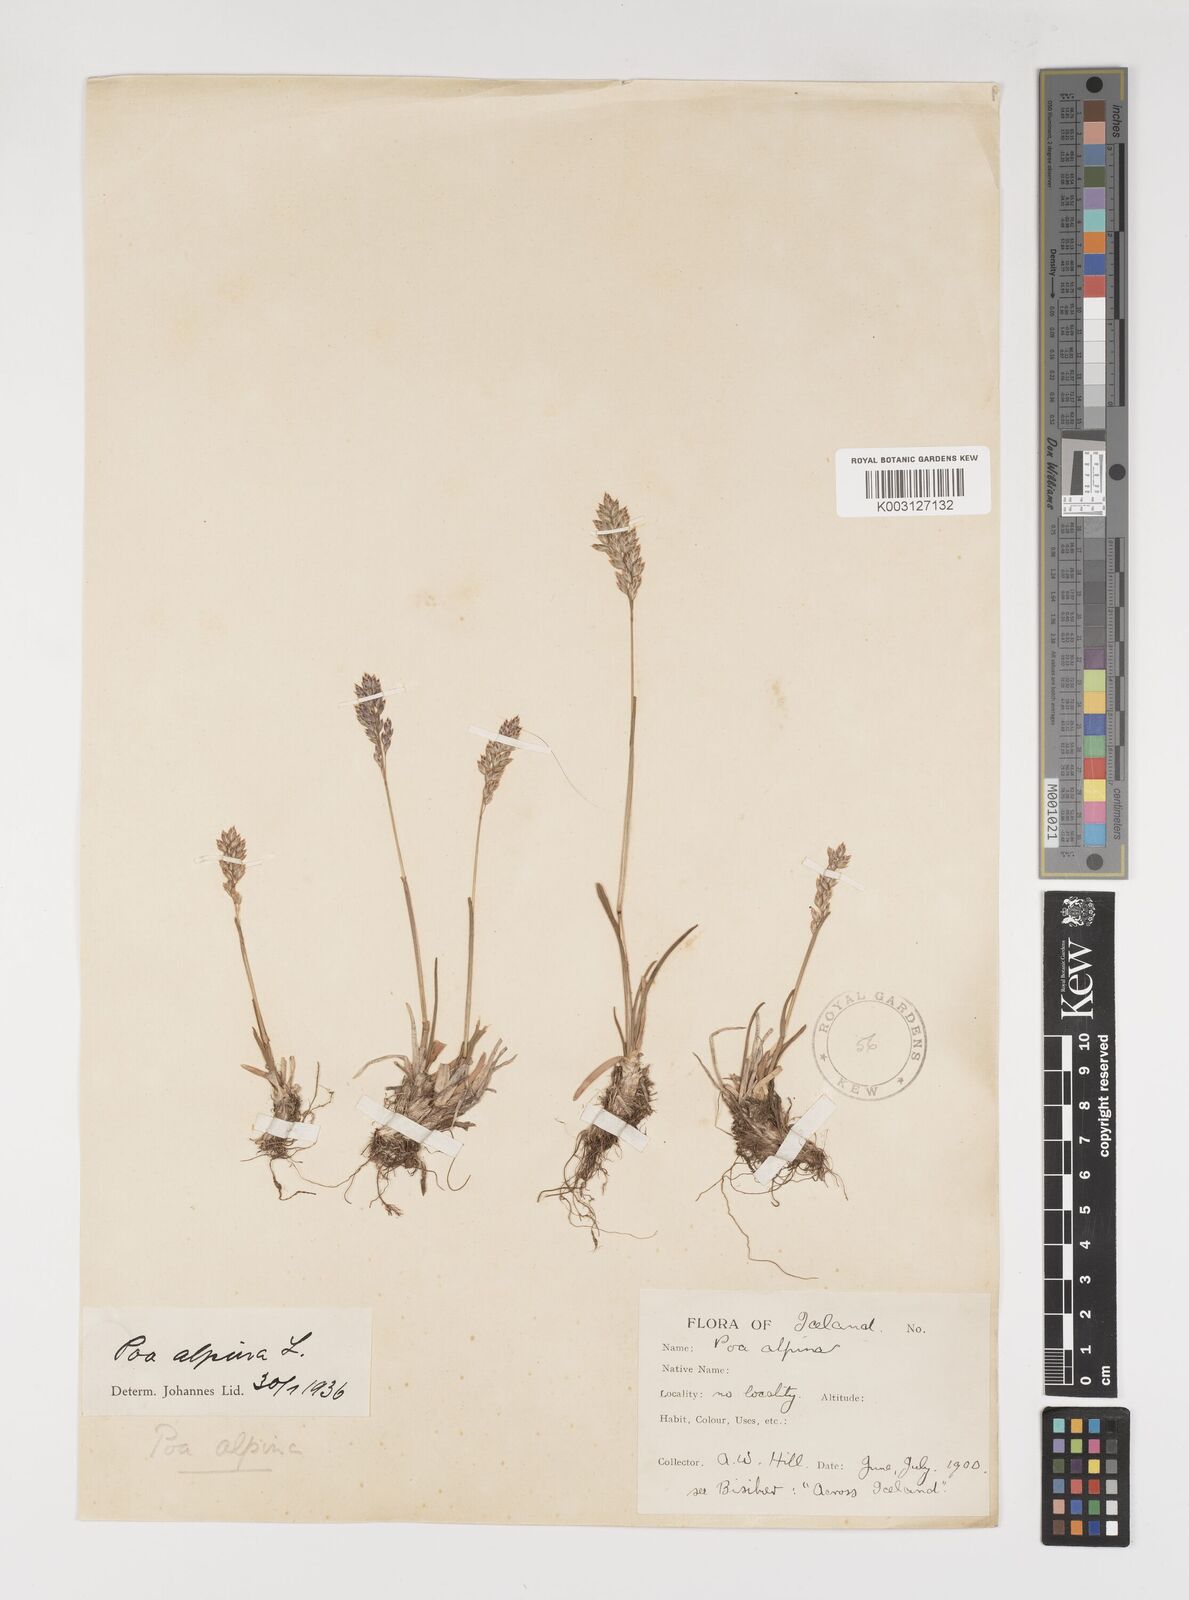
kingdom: Plantae
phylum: Tracheophyta
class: Liliopsida
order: Poales
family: Poaceae
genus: Poa
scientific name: Poa alpina
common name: Alpine bluegrass
